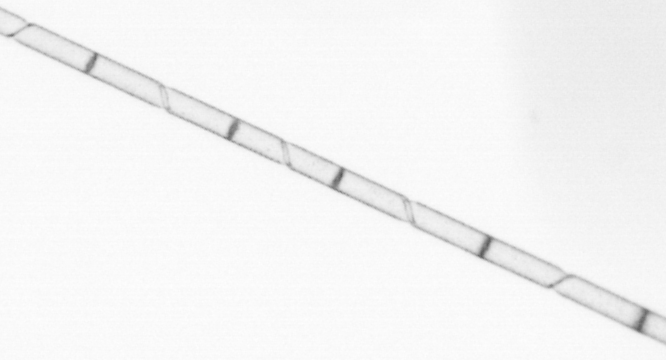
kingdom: Chromista
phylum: Ochrophyta
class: Bacillariophyceae
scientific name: Bacillariophyceae
